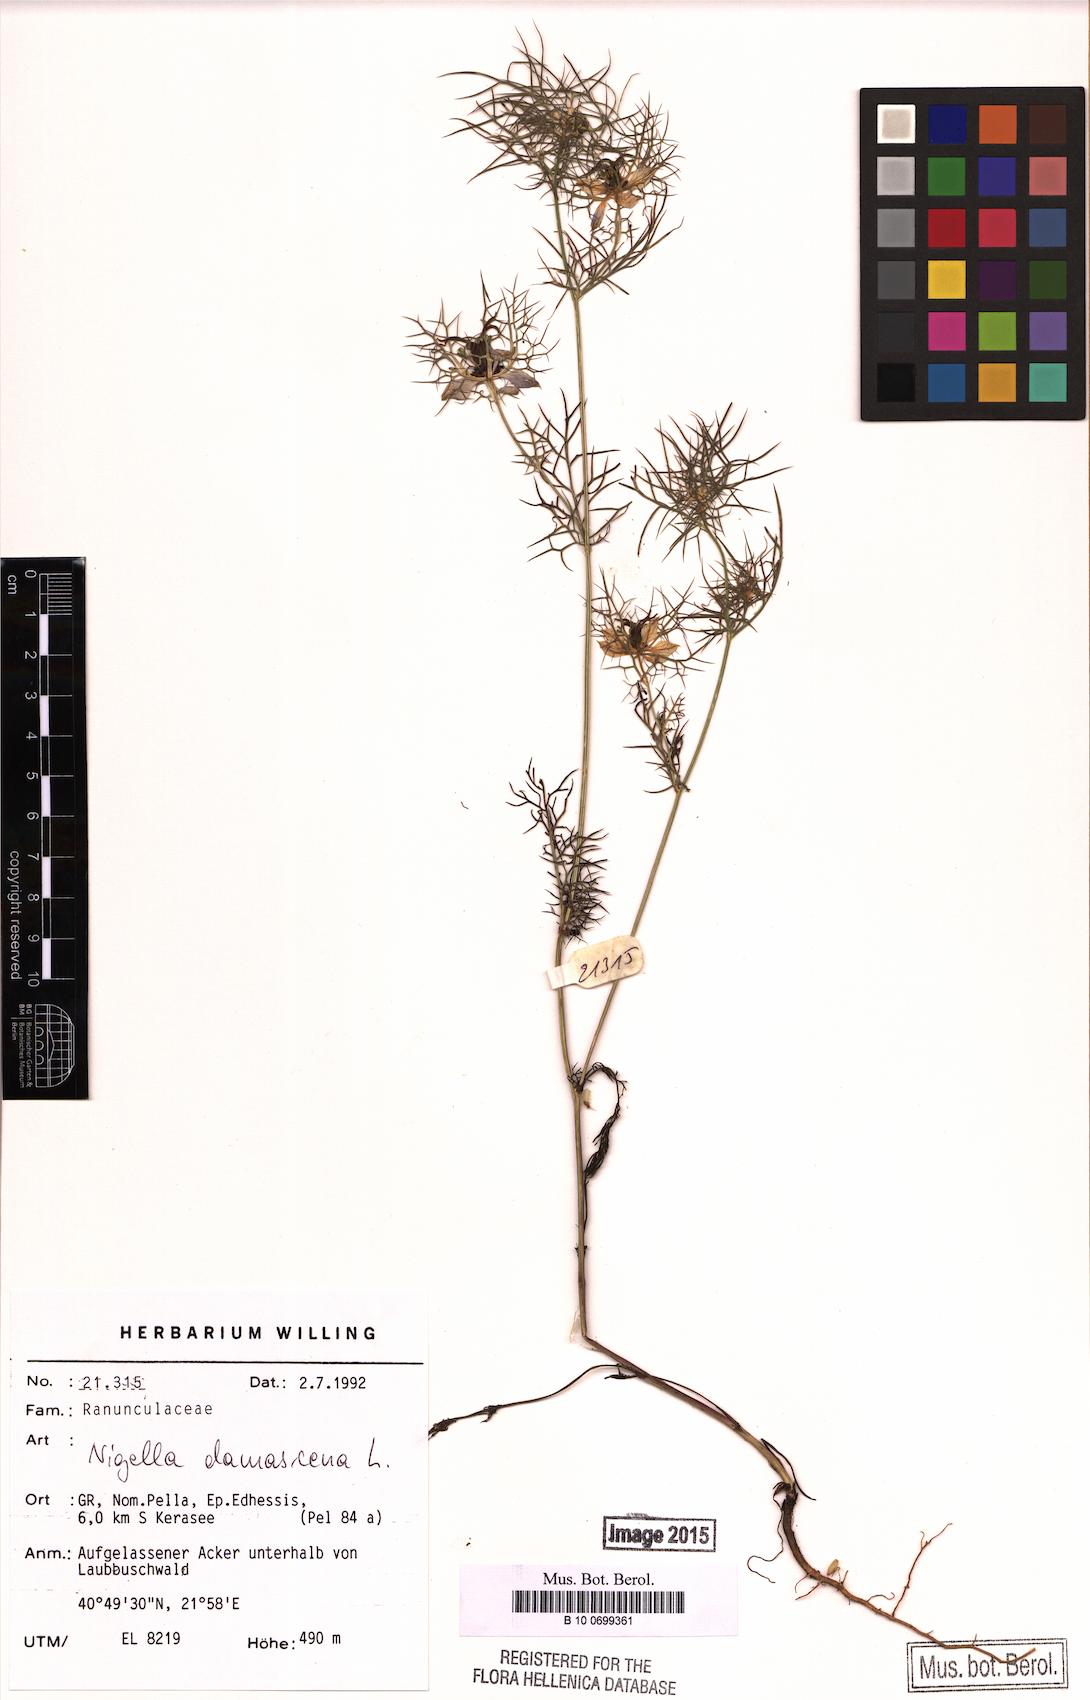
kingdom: Plantae
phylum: Tracheophyta
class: Magnoliopsida
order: Ranunculales
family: Ranunculaceae
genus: Nigella
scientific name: Nigella damascena
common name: Love-in-a-mist
